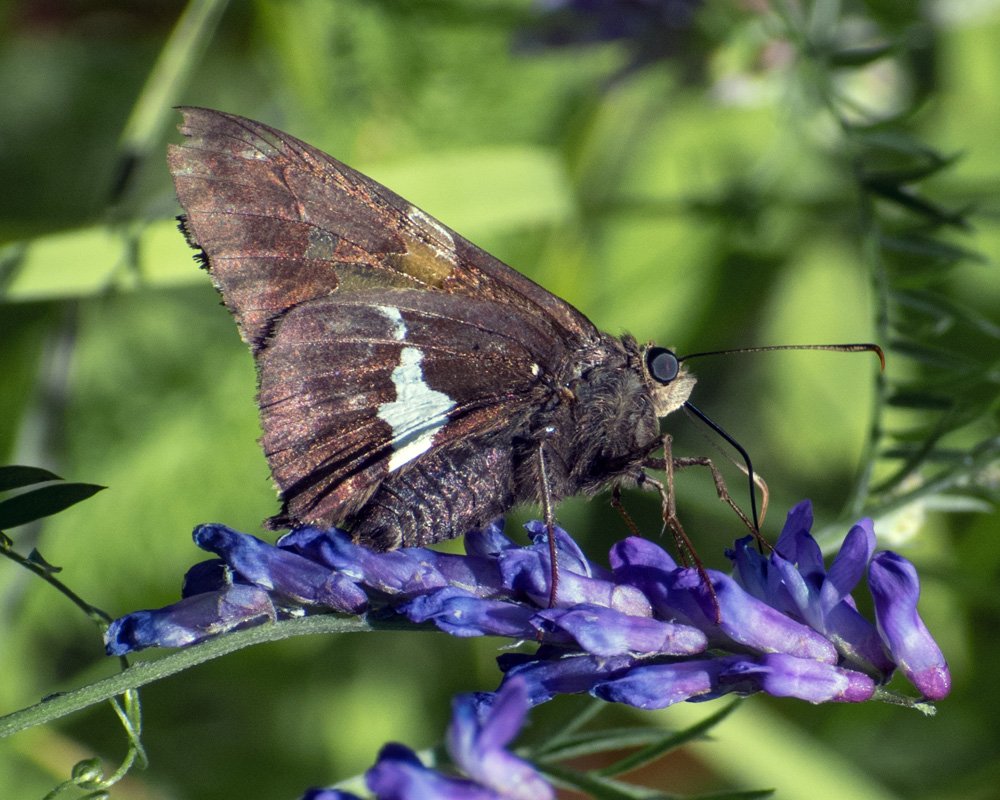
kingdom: Animalia
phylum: Arthropoda
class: Insecta
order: Lepidoptera
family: Hesperiidae
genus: Epargyreus
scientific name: Epargyreus clarus
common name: Silver-spotted Skipper
